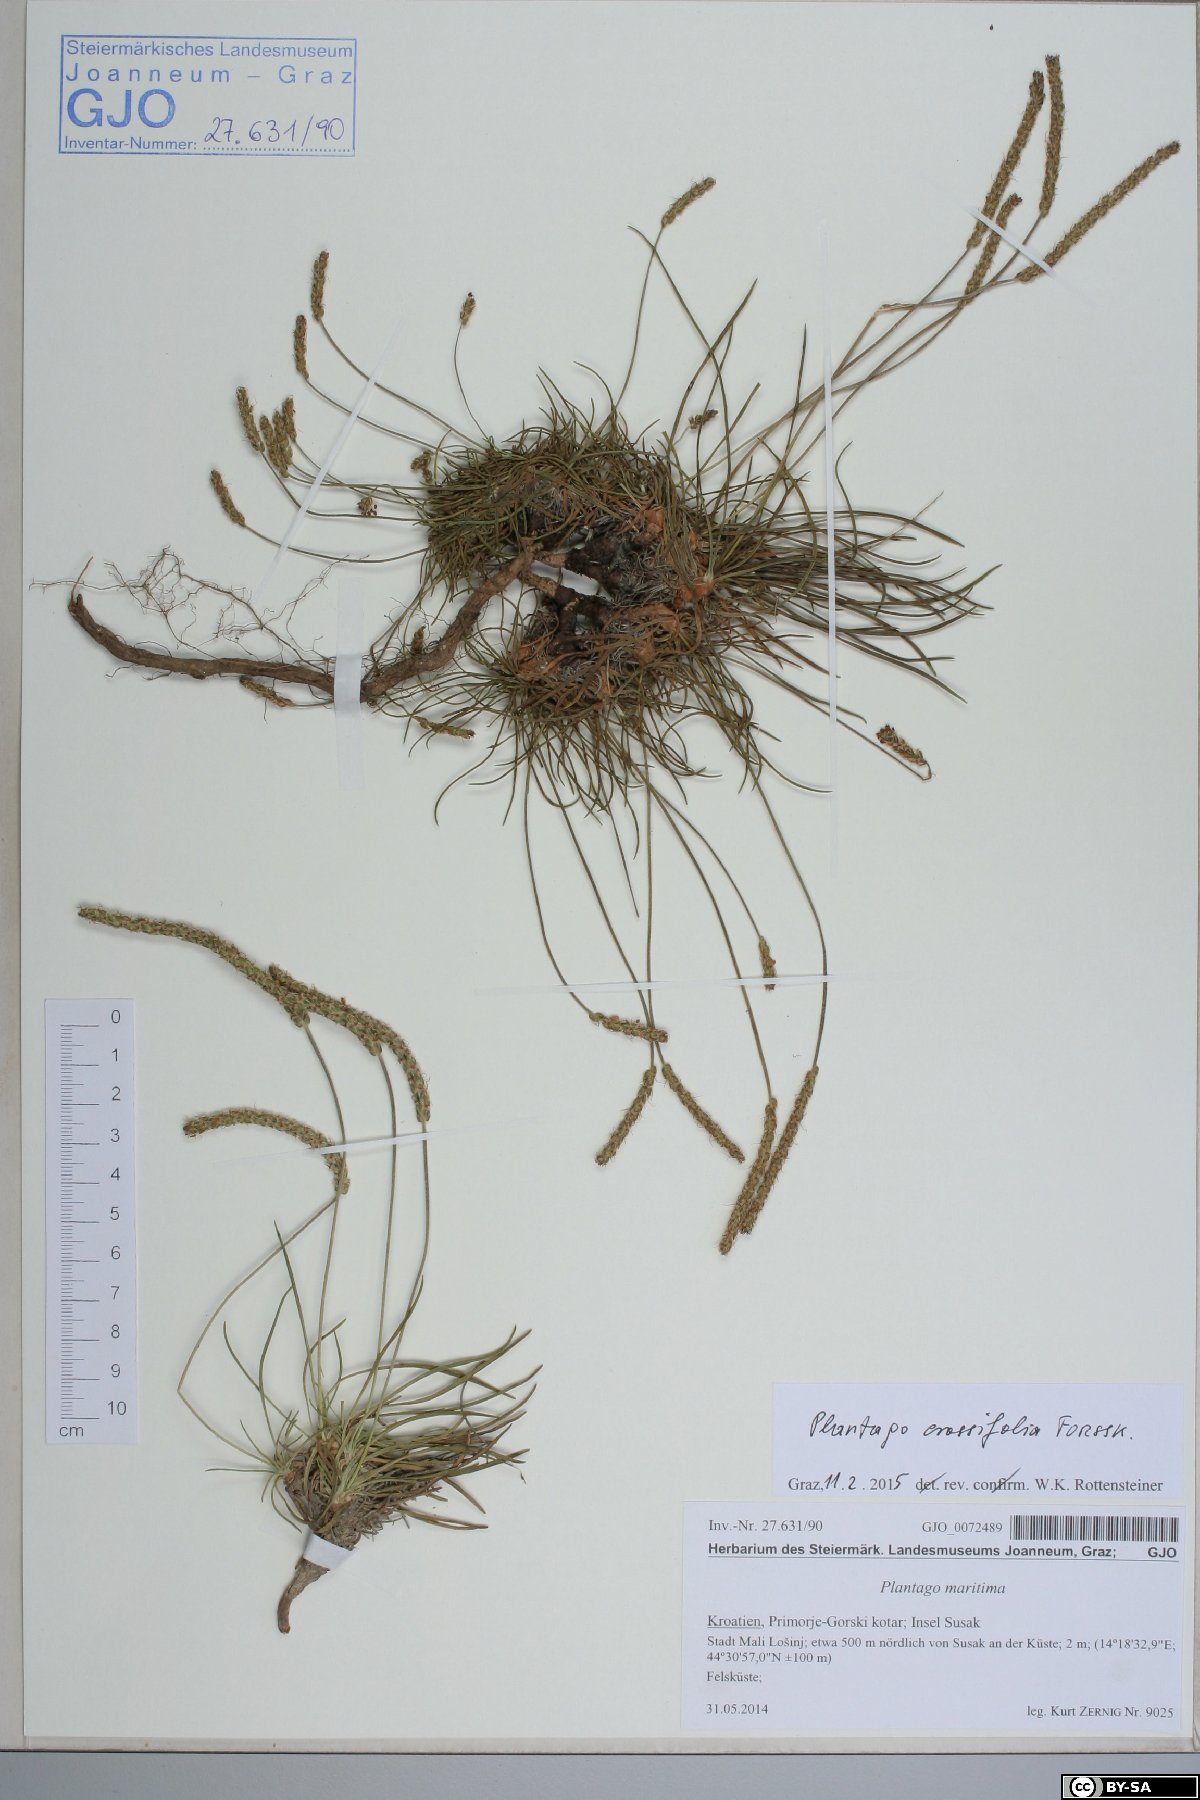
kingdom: Plantae
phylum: Tracheophyta
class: Magnoliopsida
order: Lamiales
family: Plantaginaceae
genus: Plantago
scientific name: Plantago crassifolia
